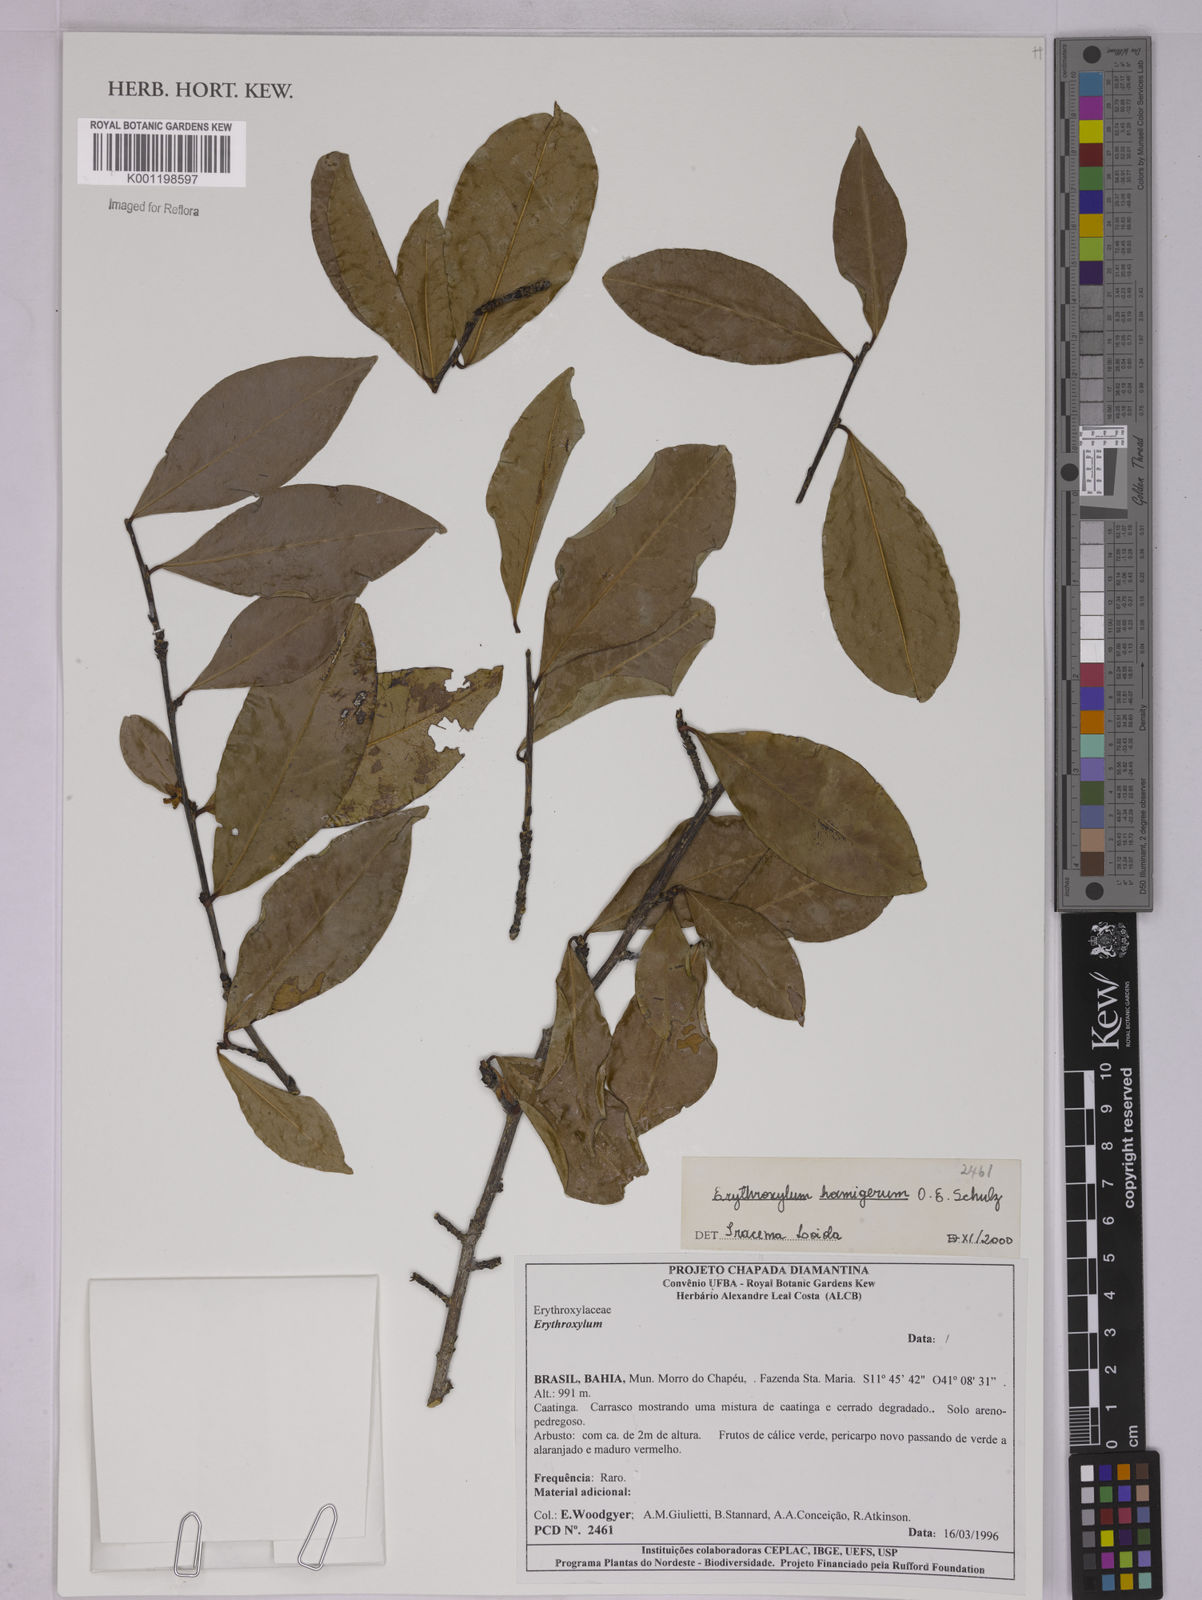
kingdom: Plantae
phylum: Tracheophyta
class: Magnoliopsida
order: Malpighiales
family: Erythroxylaceae
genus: Erythroxylum
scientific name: Erythroxylum hamigerum
